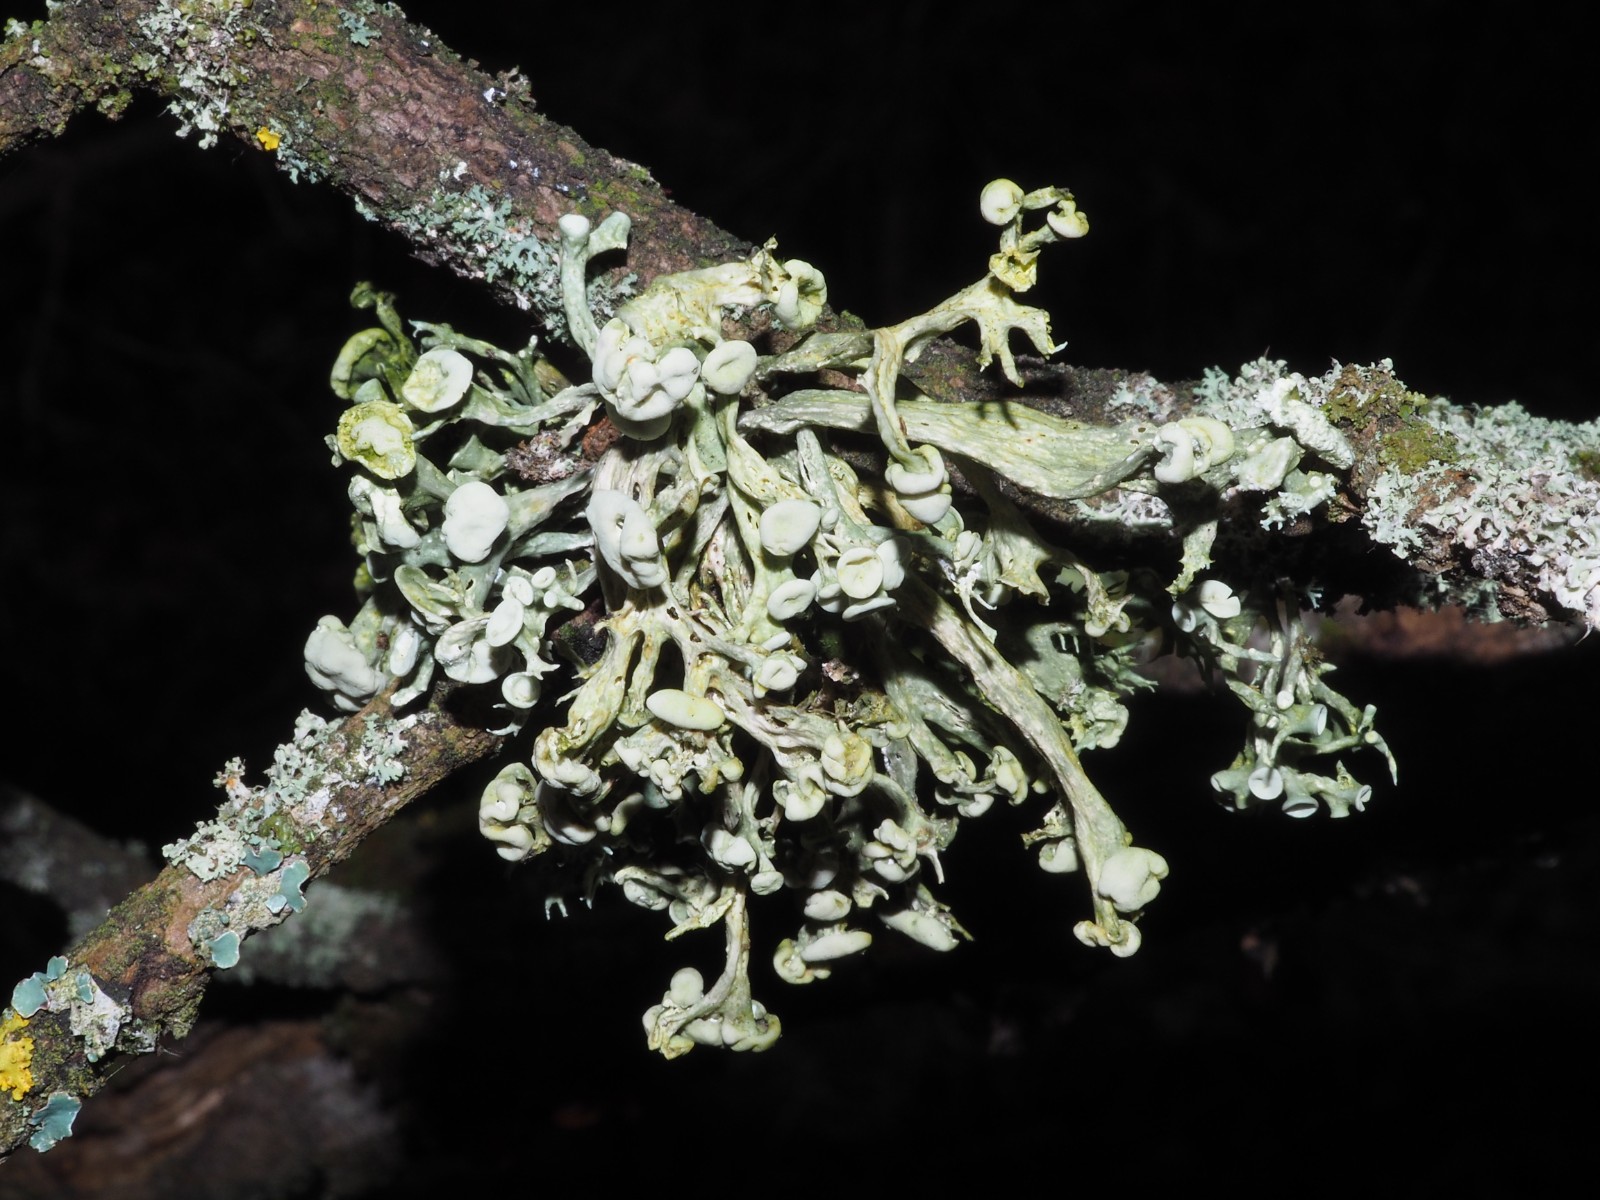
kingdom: Fungi
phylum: Ascomycota
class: Lecanoromycetes
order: Lecanorales
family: Ramalinaceae
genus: Ramalina
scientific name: Ramalina fastigiata
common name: tue-grenlav
